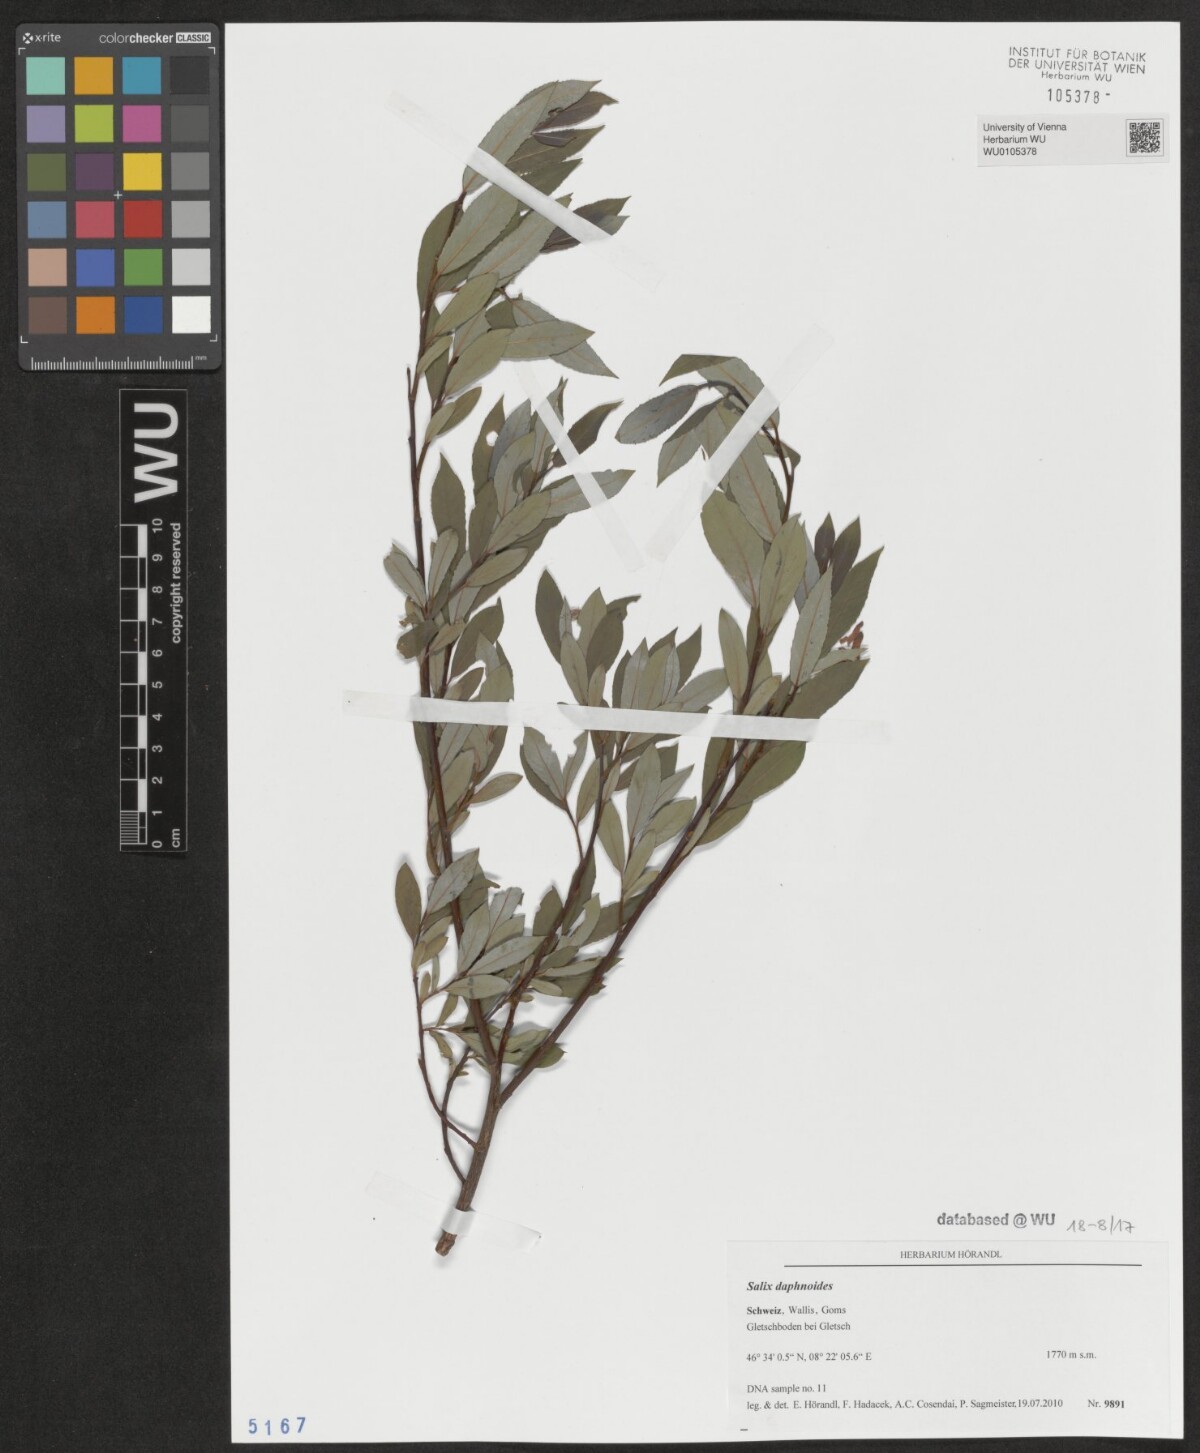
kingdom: Plantae
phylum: Tracheophyta
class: Magnoliopsida
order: Malpighiales
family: Salicaceae
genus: Salix
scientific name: Salix daphnoides
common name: European violet-willow
